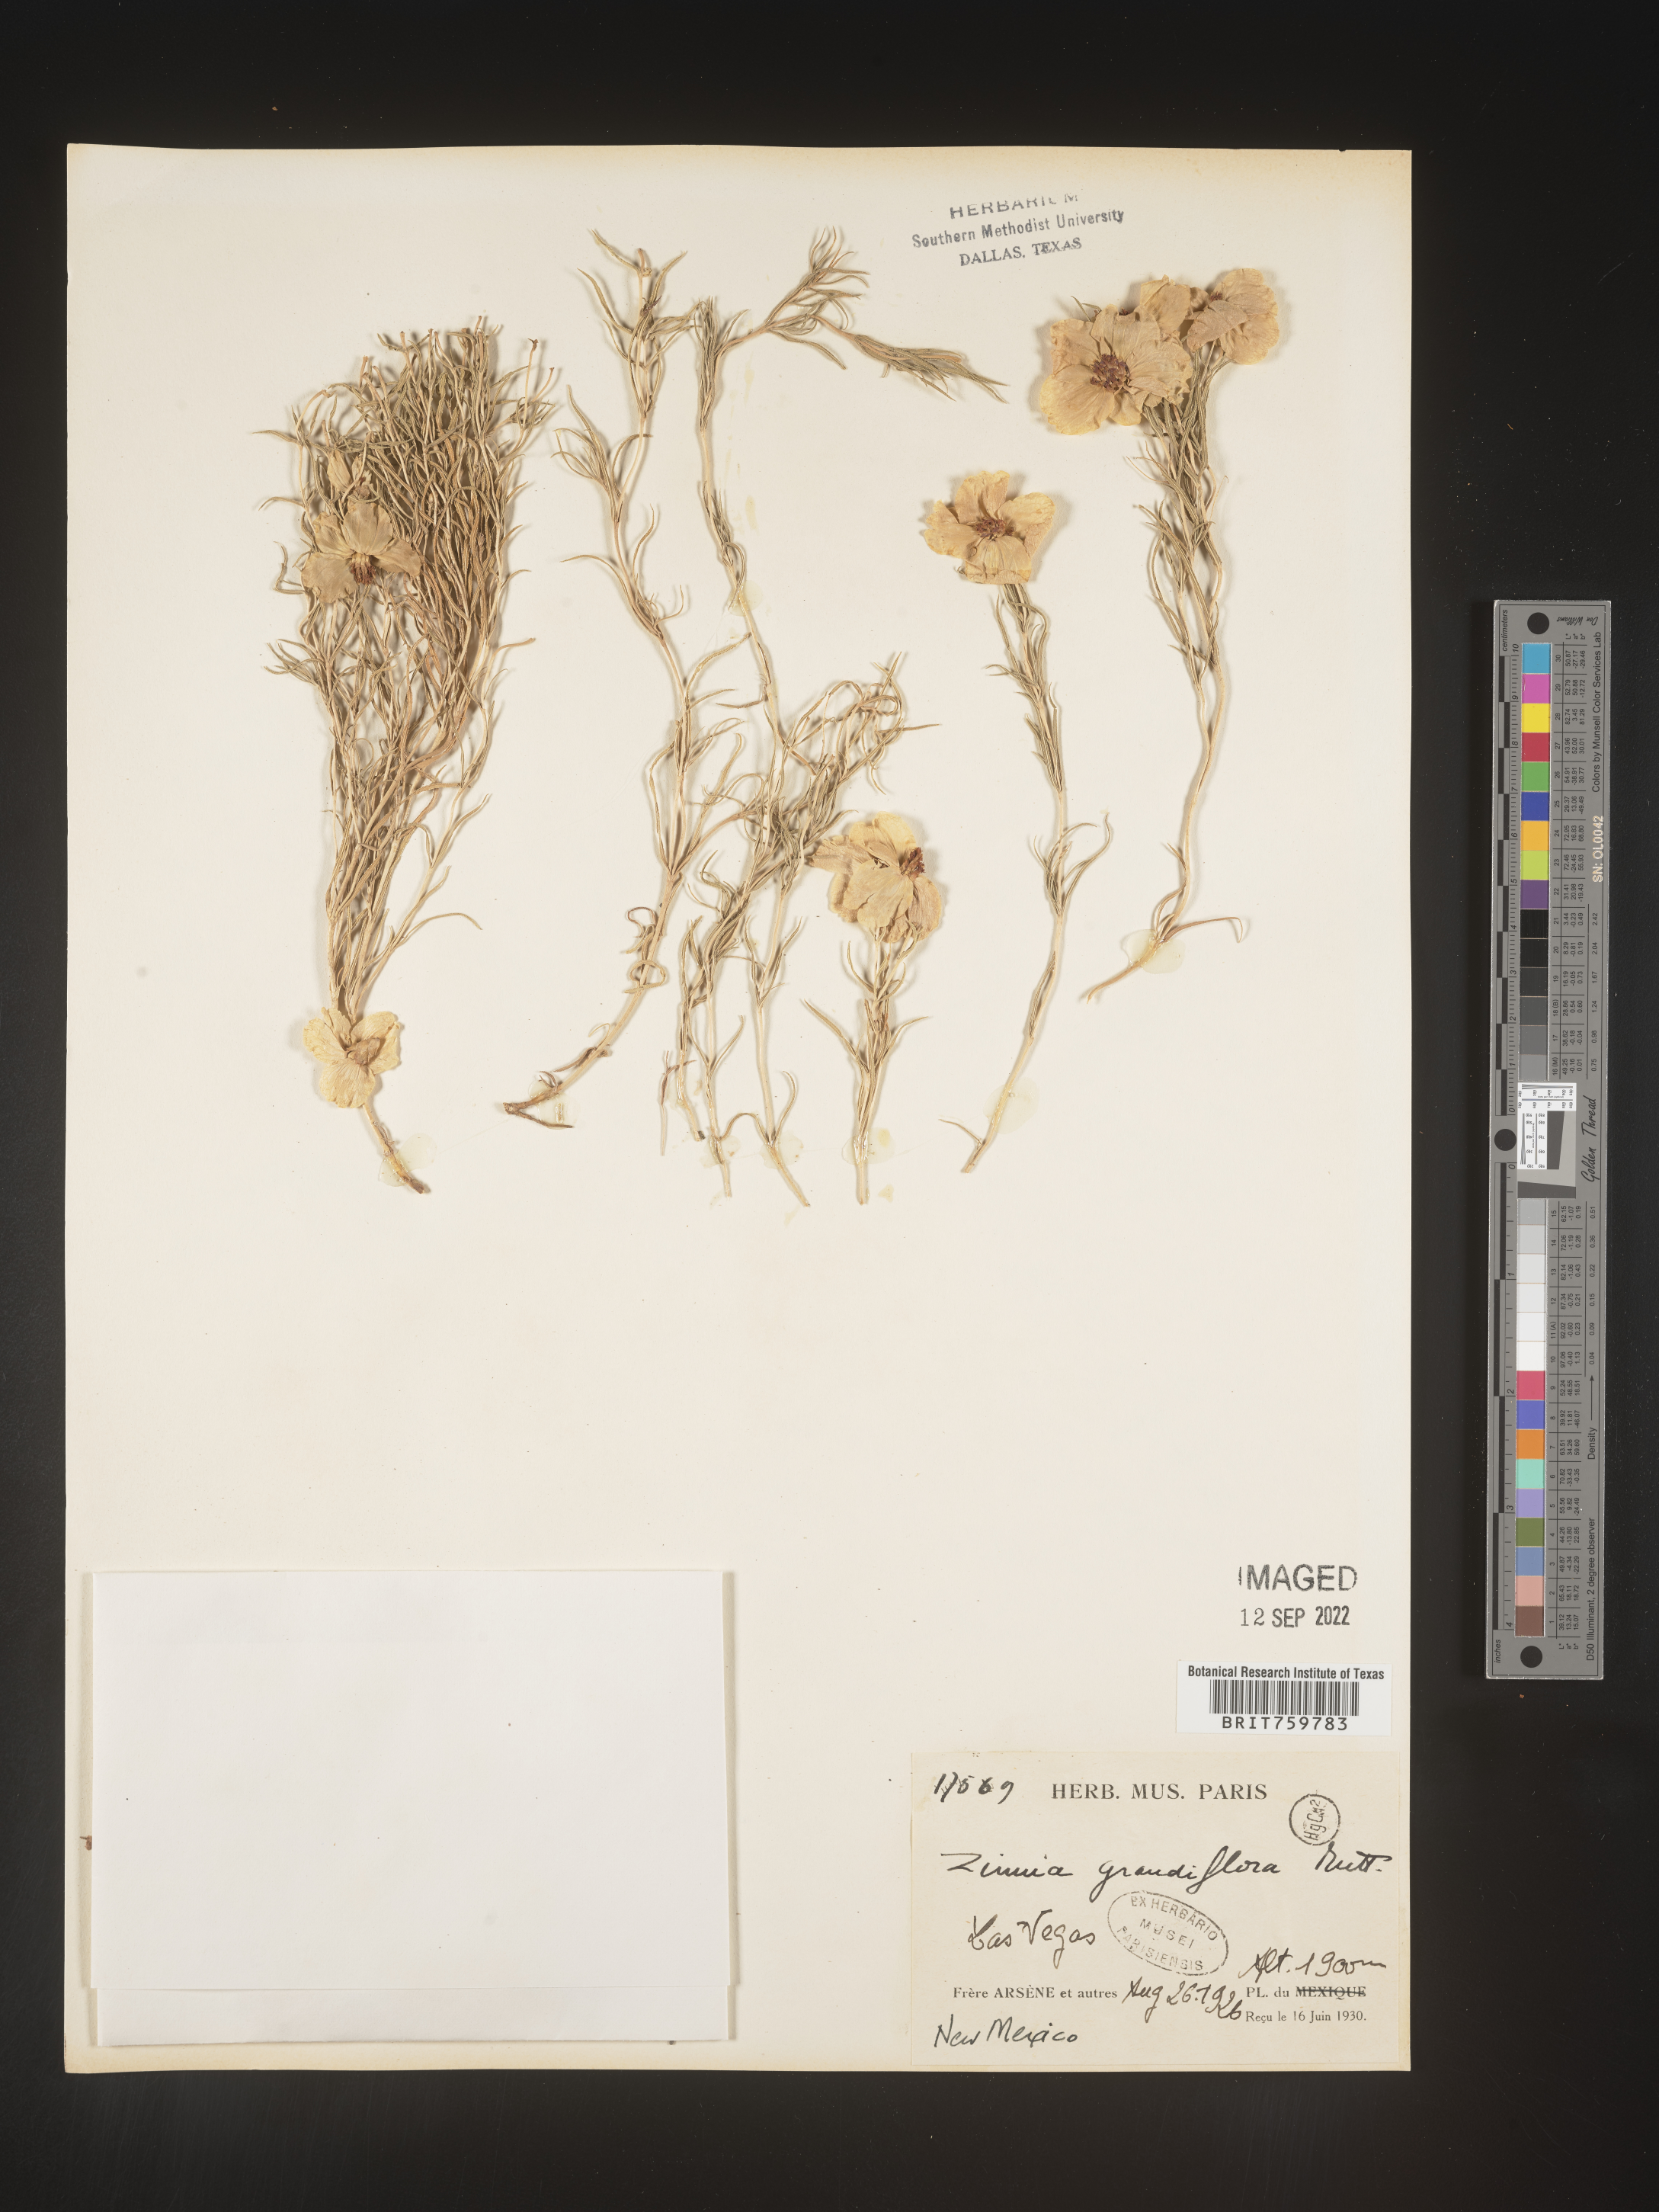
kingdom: Plantae
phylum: Tracheophyta
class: Magnoliopsida
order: Asterales
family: Asteraceae
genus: Zinnia
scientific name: Zinnia grandiflora
